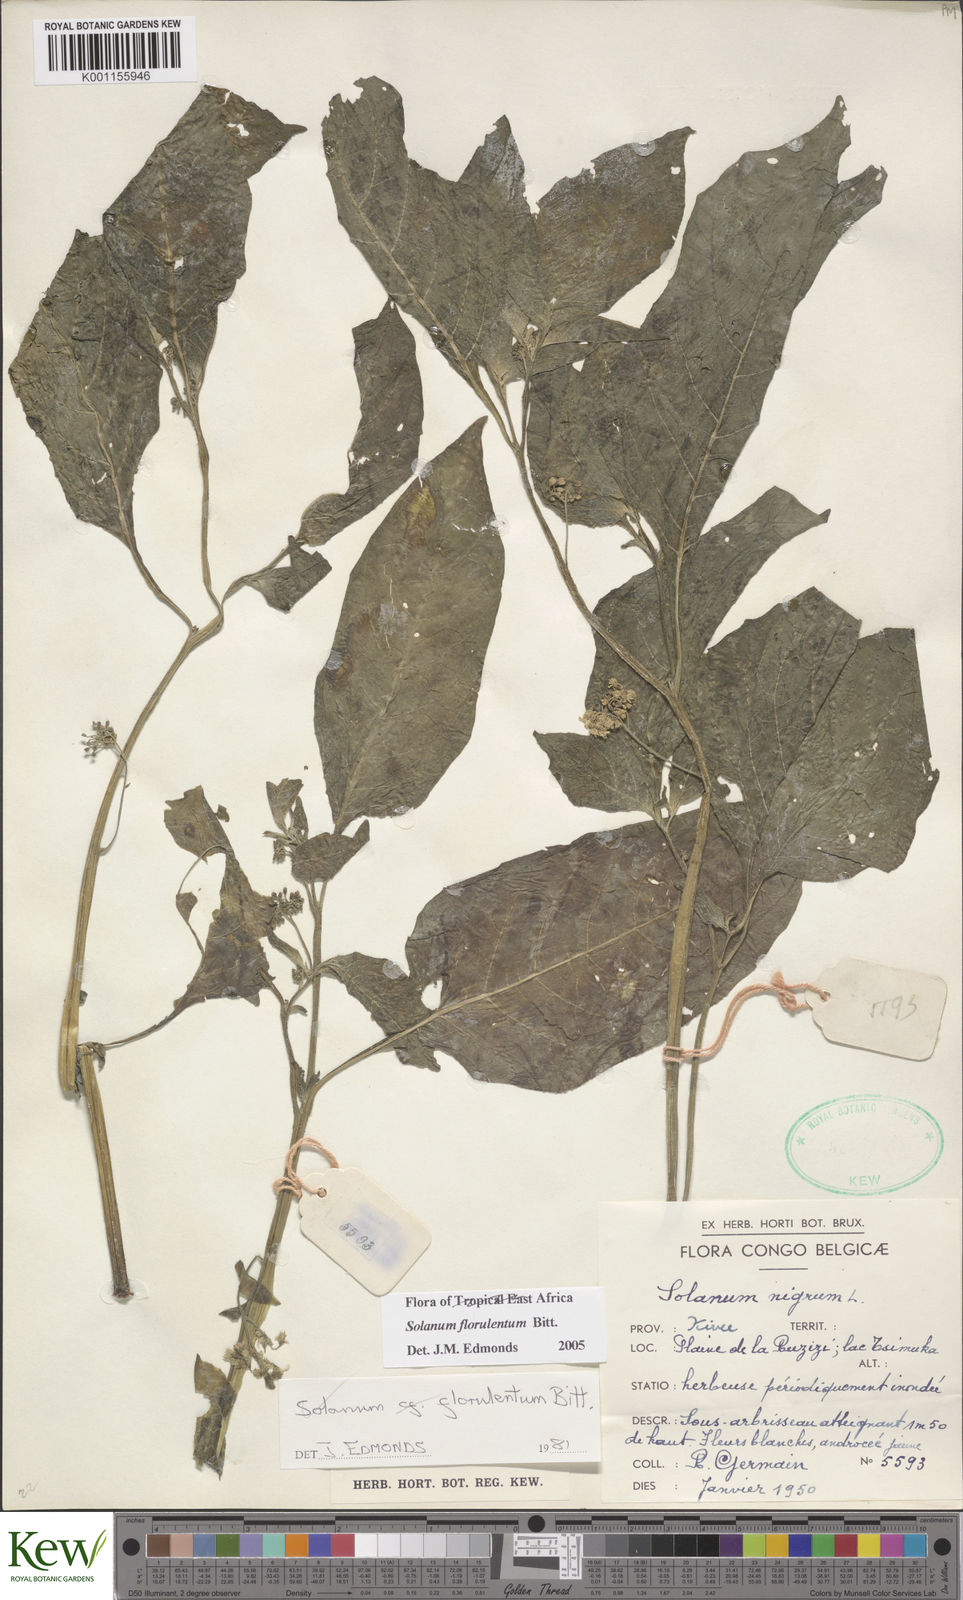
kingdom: Plantae
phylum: Tracheophyta
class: Magnoliopsida
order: Solanales
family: Solanaceae
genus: Solanum
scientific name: Solanum tarderemotum
